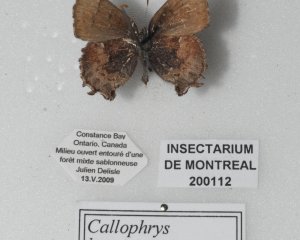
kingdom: Animalia
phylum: Arthropoda
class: Insecta
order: Lepidoptera
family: Lycaenidae
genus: Incisalia
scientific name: Incisalia irioides
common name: Brown Elfin
